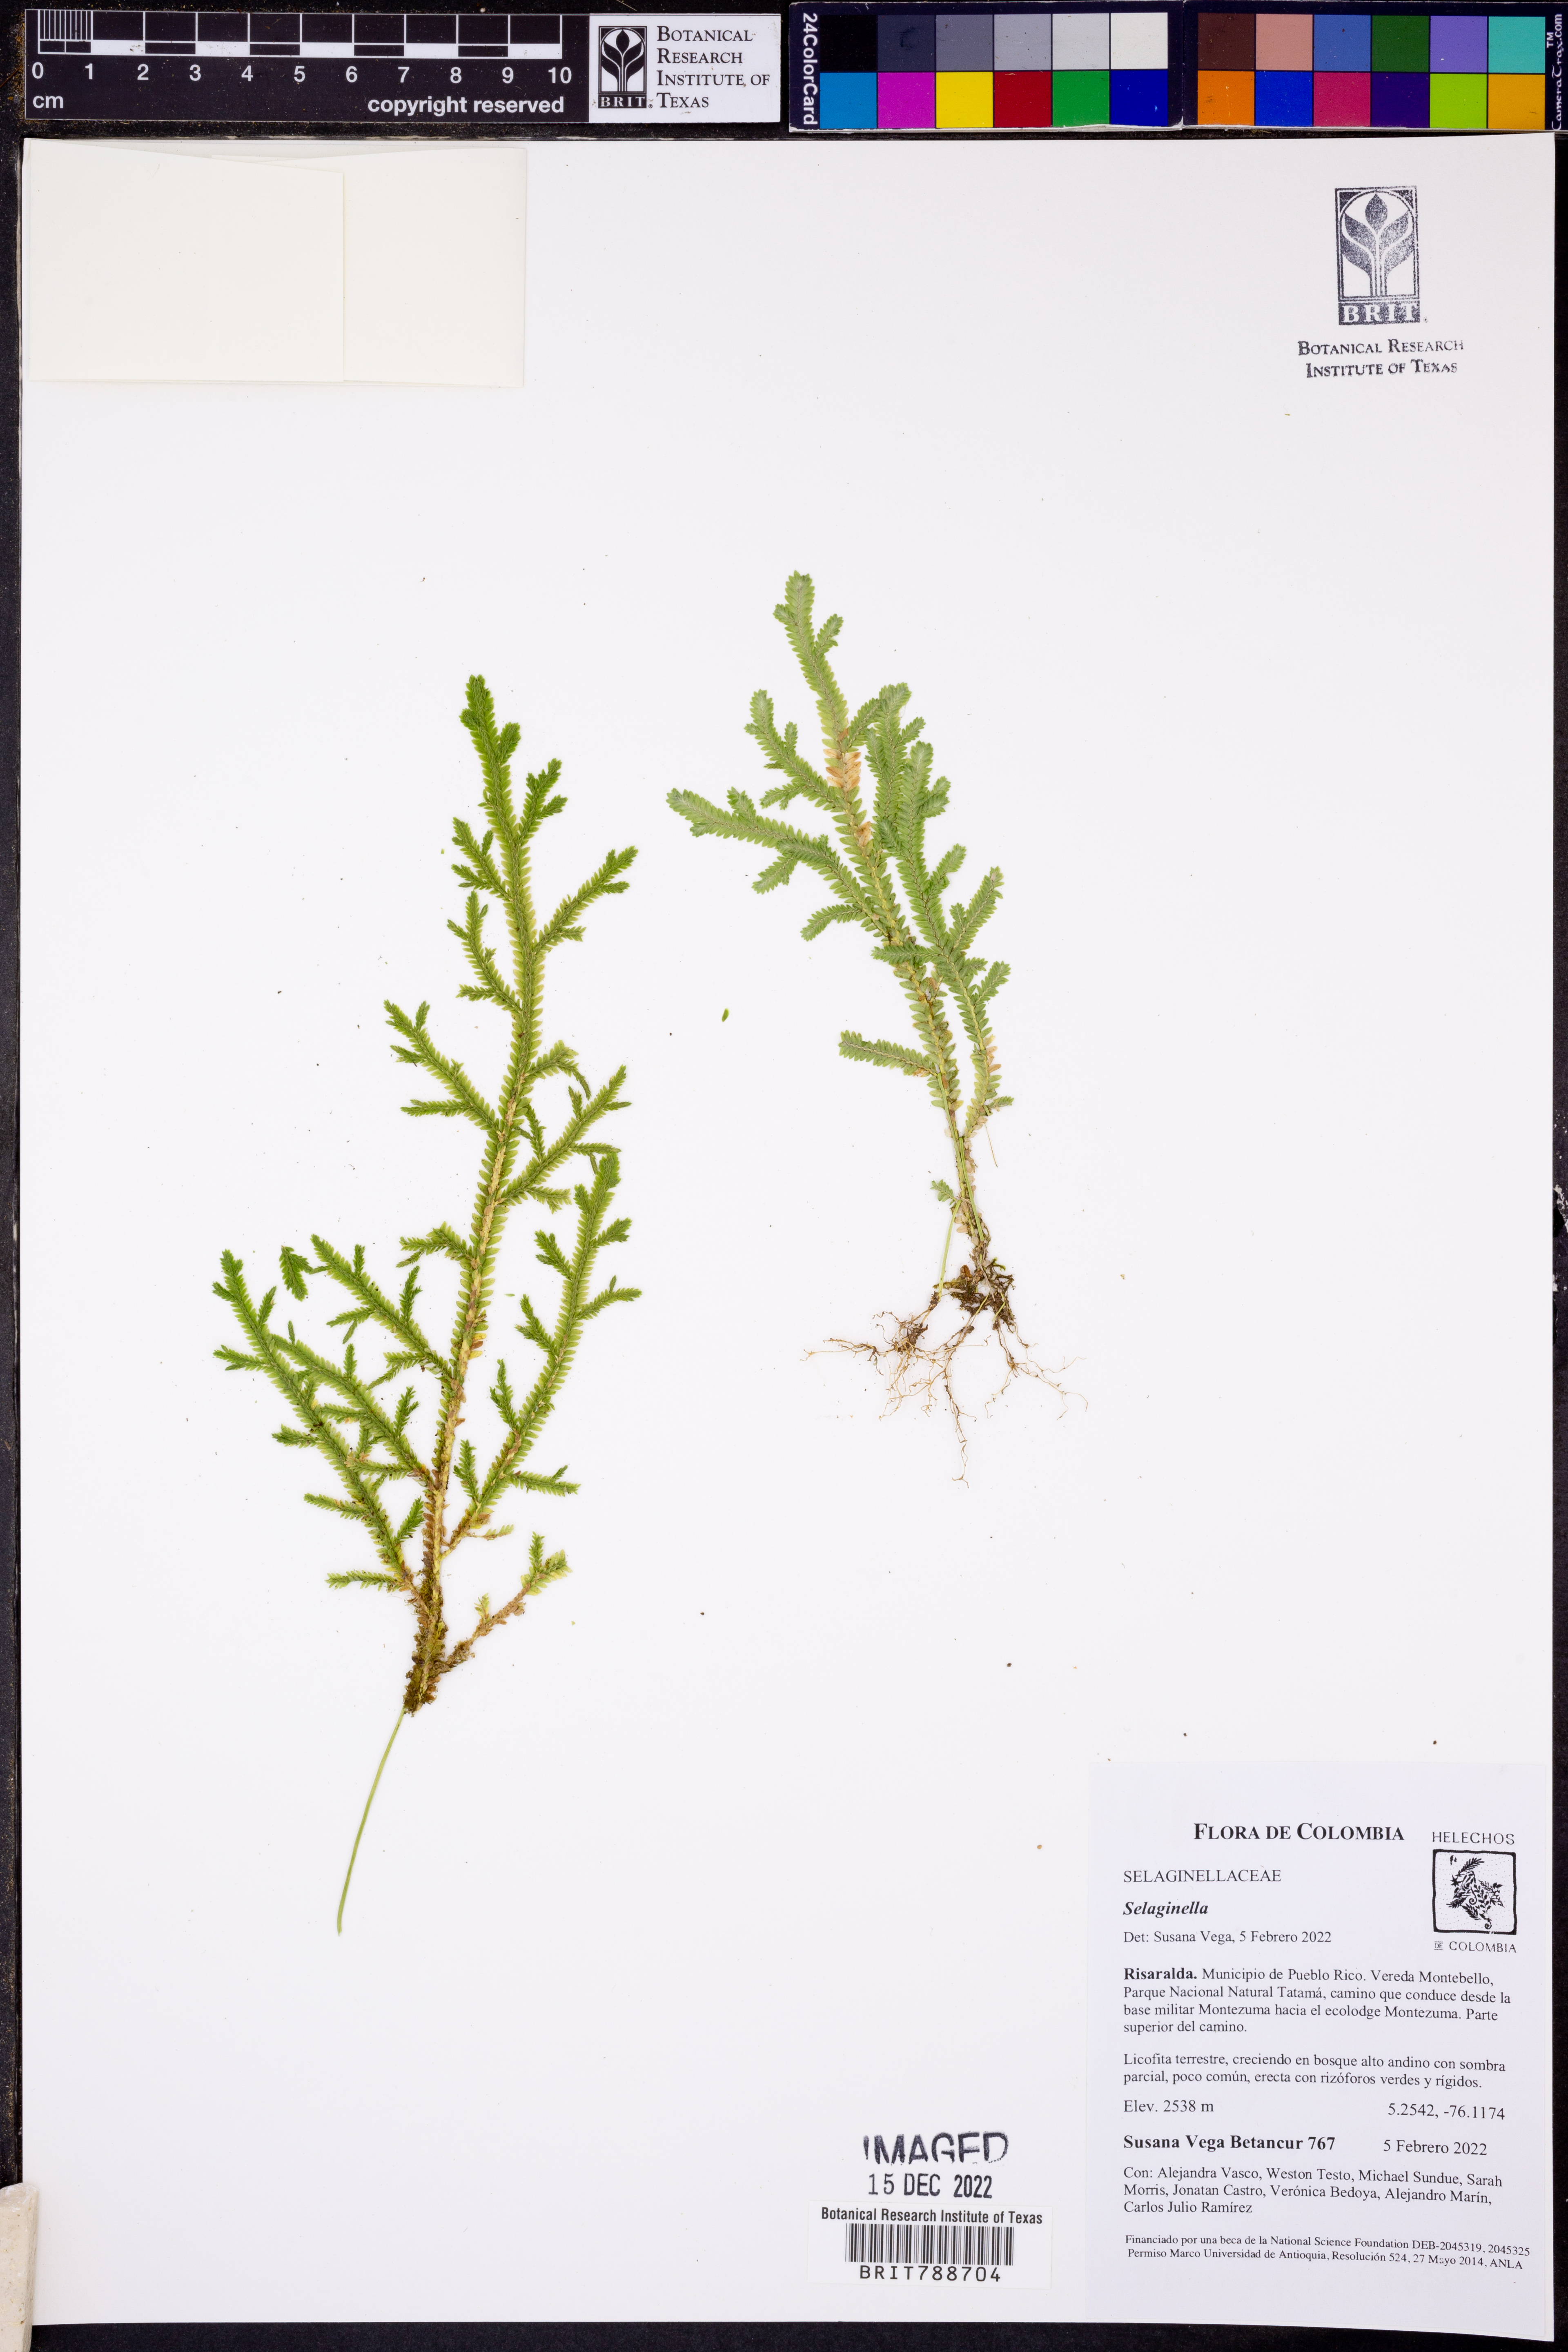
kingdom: Plantae
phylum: Tracheophyta
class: Lycopodiopsida
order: Selaginellales
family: Selaginellaceae
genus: Selaginella
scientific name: Selaginella
